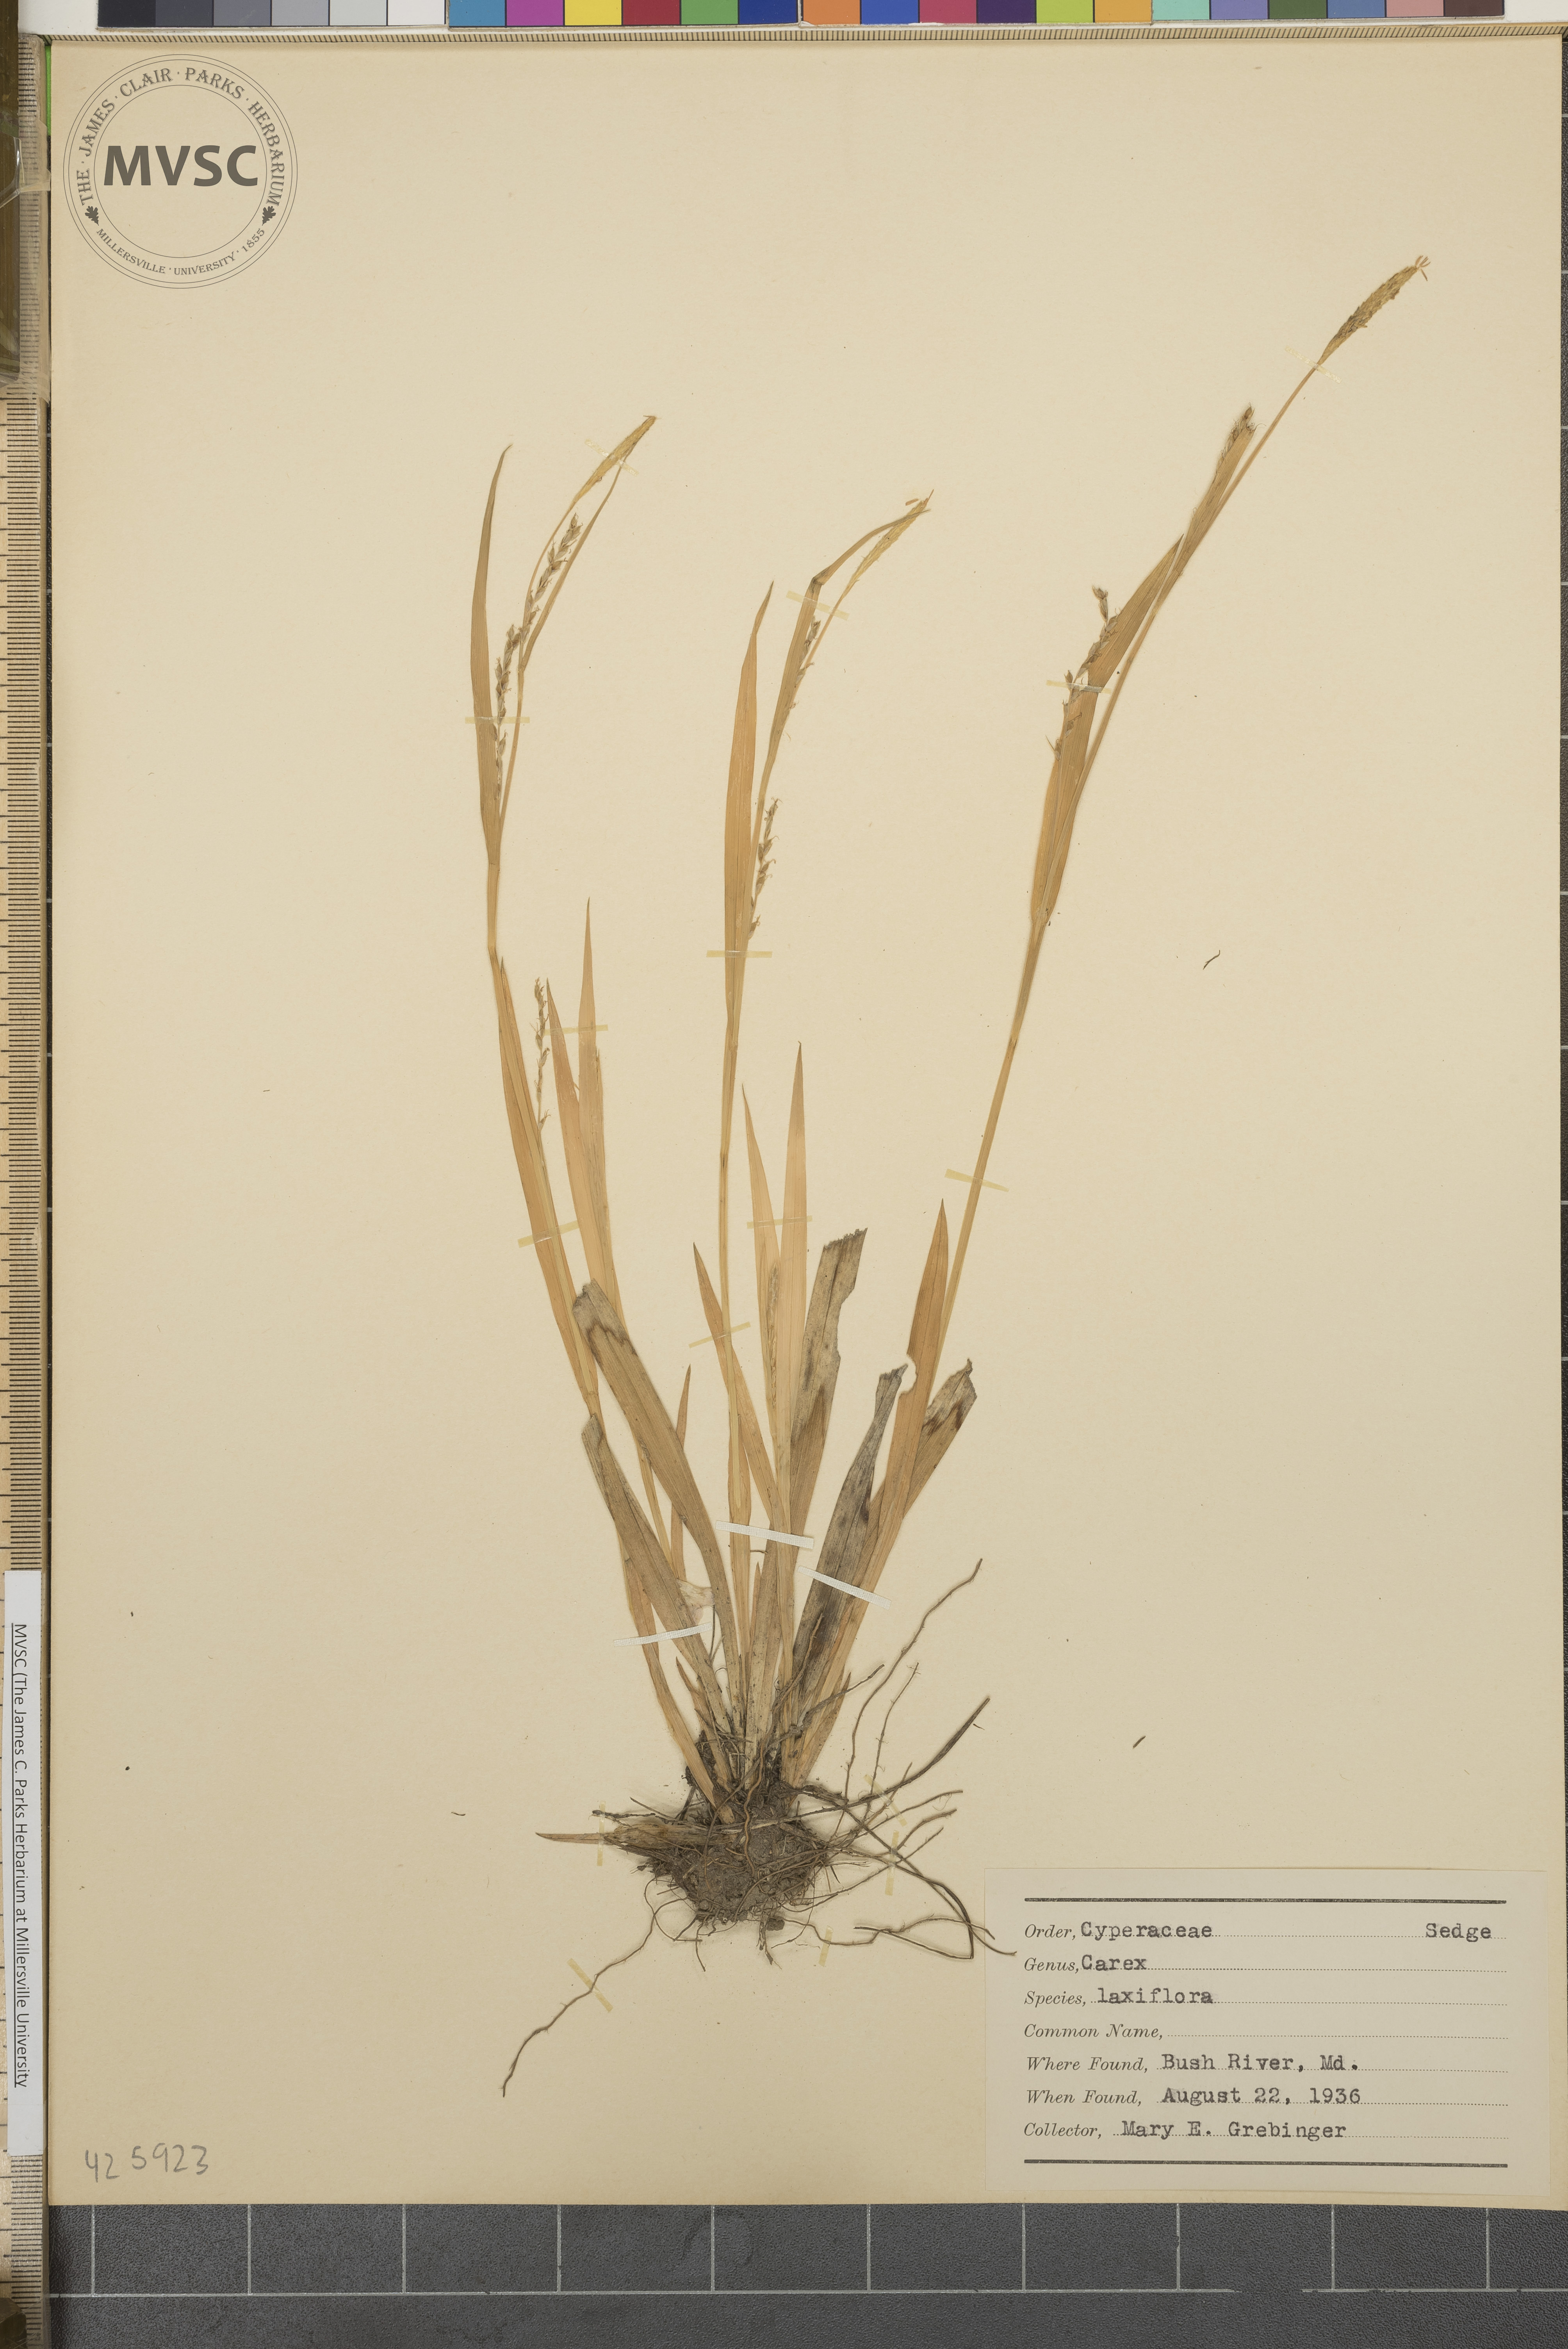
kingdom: Plantae
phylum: Tracheophyta
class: Liliopsida
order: Poales
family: Cyperaceae
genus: Carex
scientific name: Carex laxiflora
